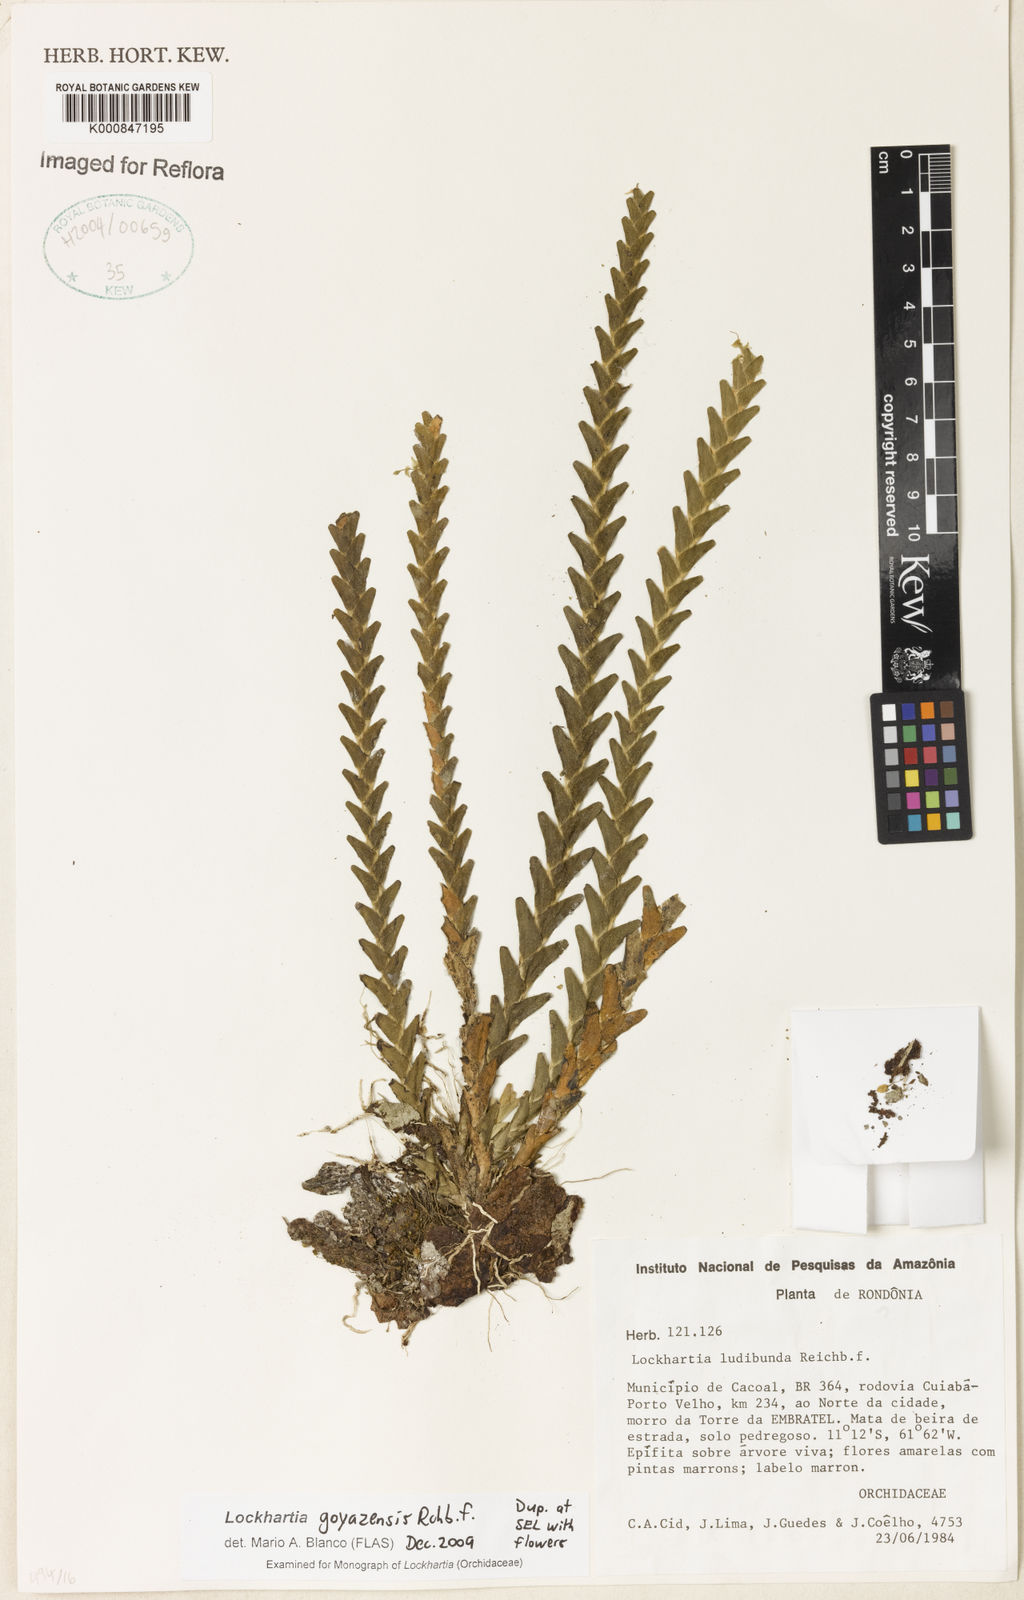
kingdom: Plantae
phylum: Tracheophyta
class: Liliopsida
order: Asparagales
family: Orchidaceae
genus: Lockhartia
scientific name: Lockhartia goyazensis
